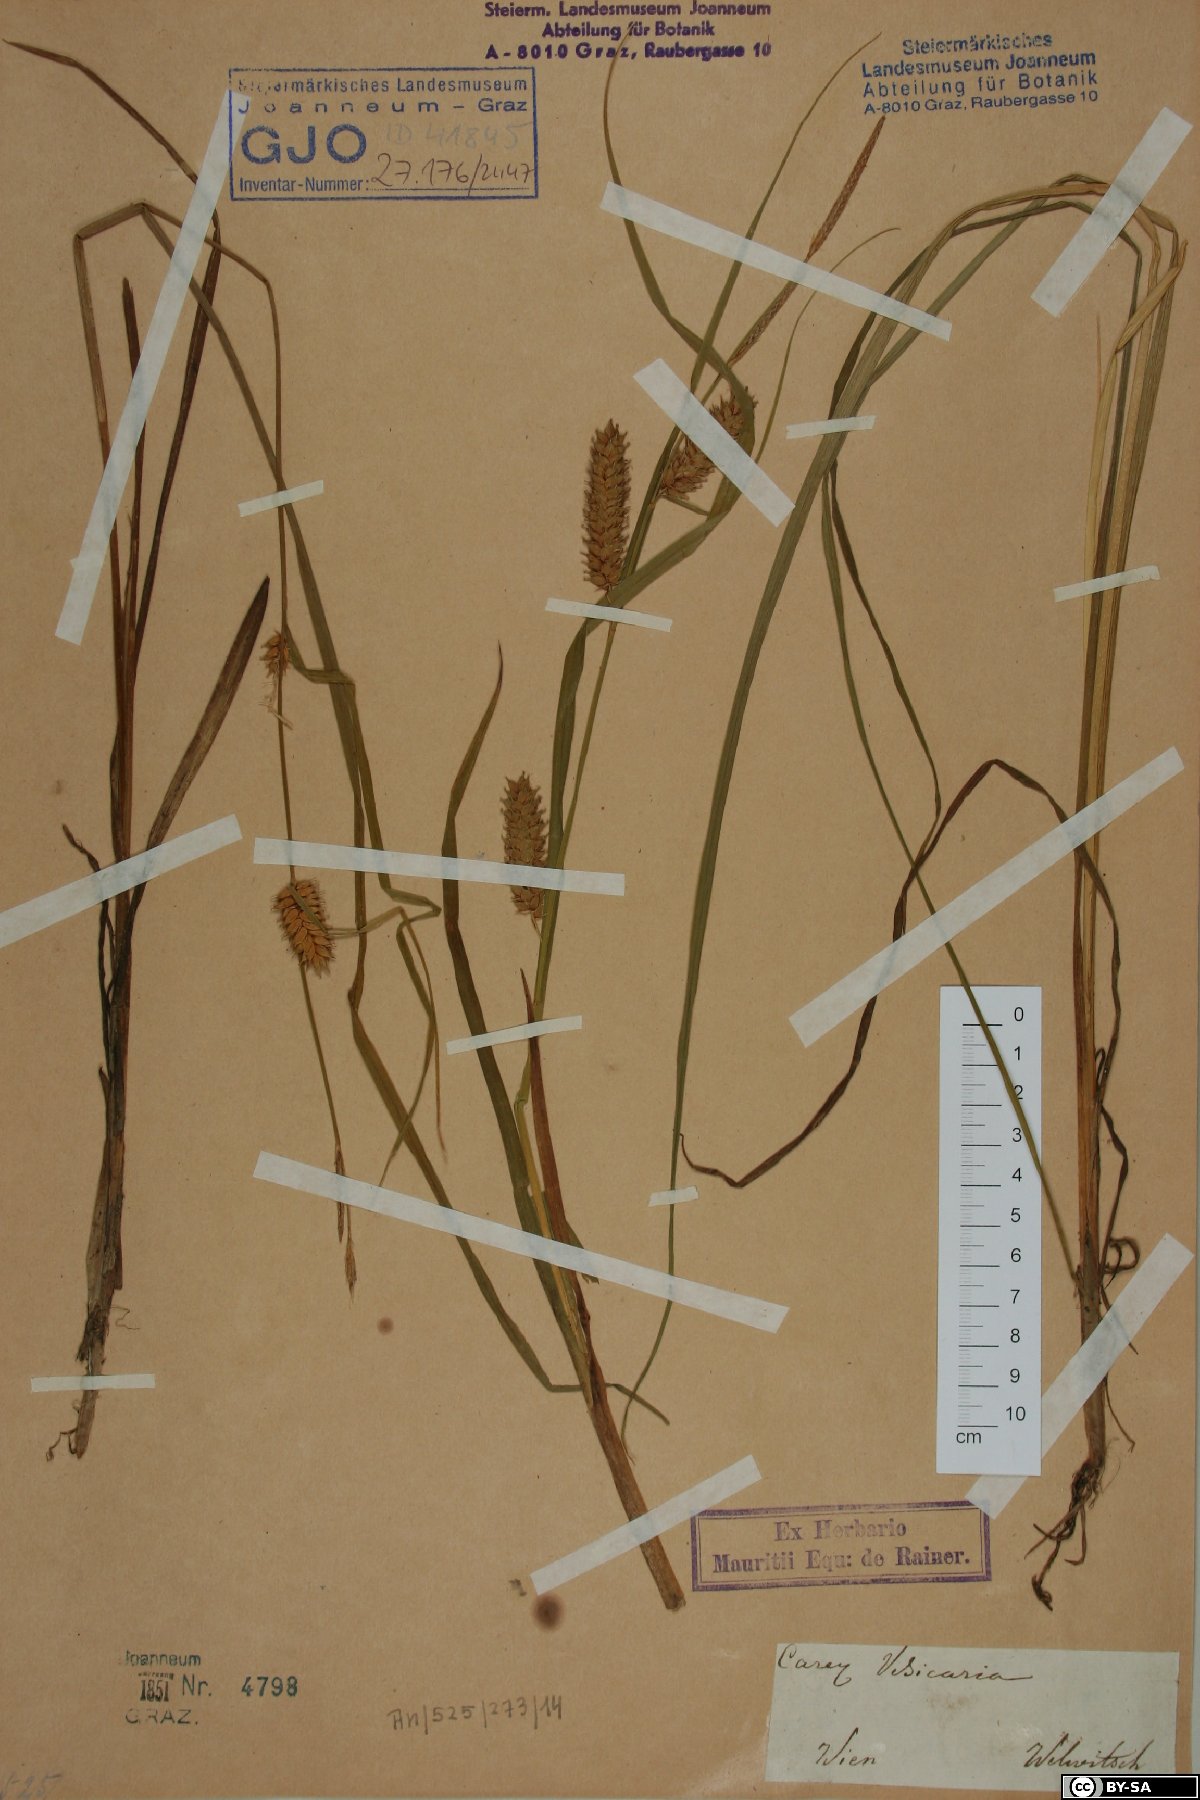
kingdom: Plantae
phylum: Tracheophyta
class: Liliopsida
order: Poales
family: Cyperaceae
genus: Carex
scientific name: Carex vesicaria
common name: Bladder-sedge
